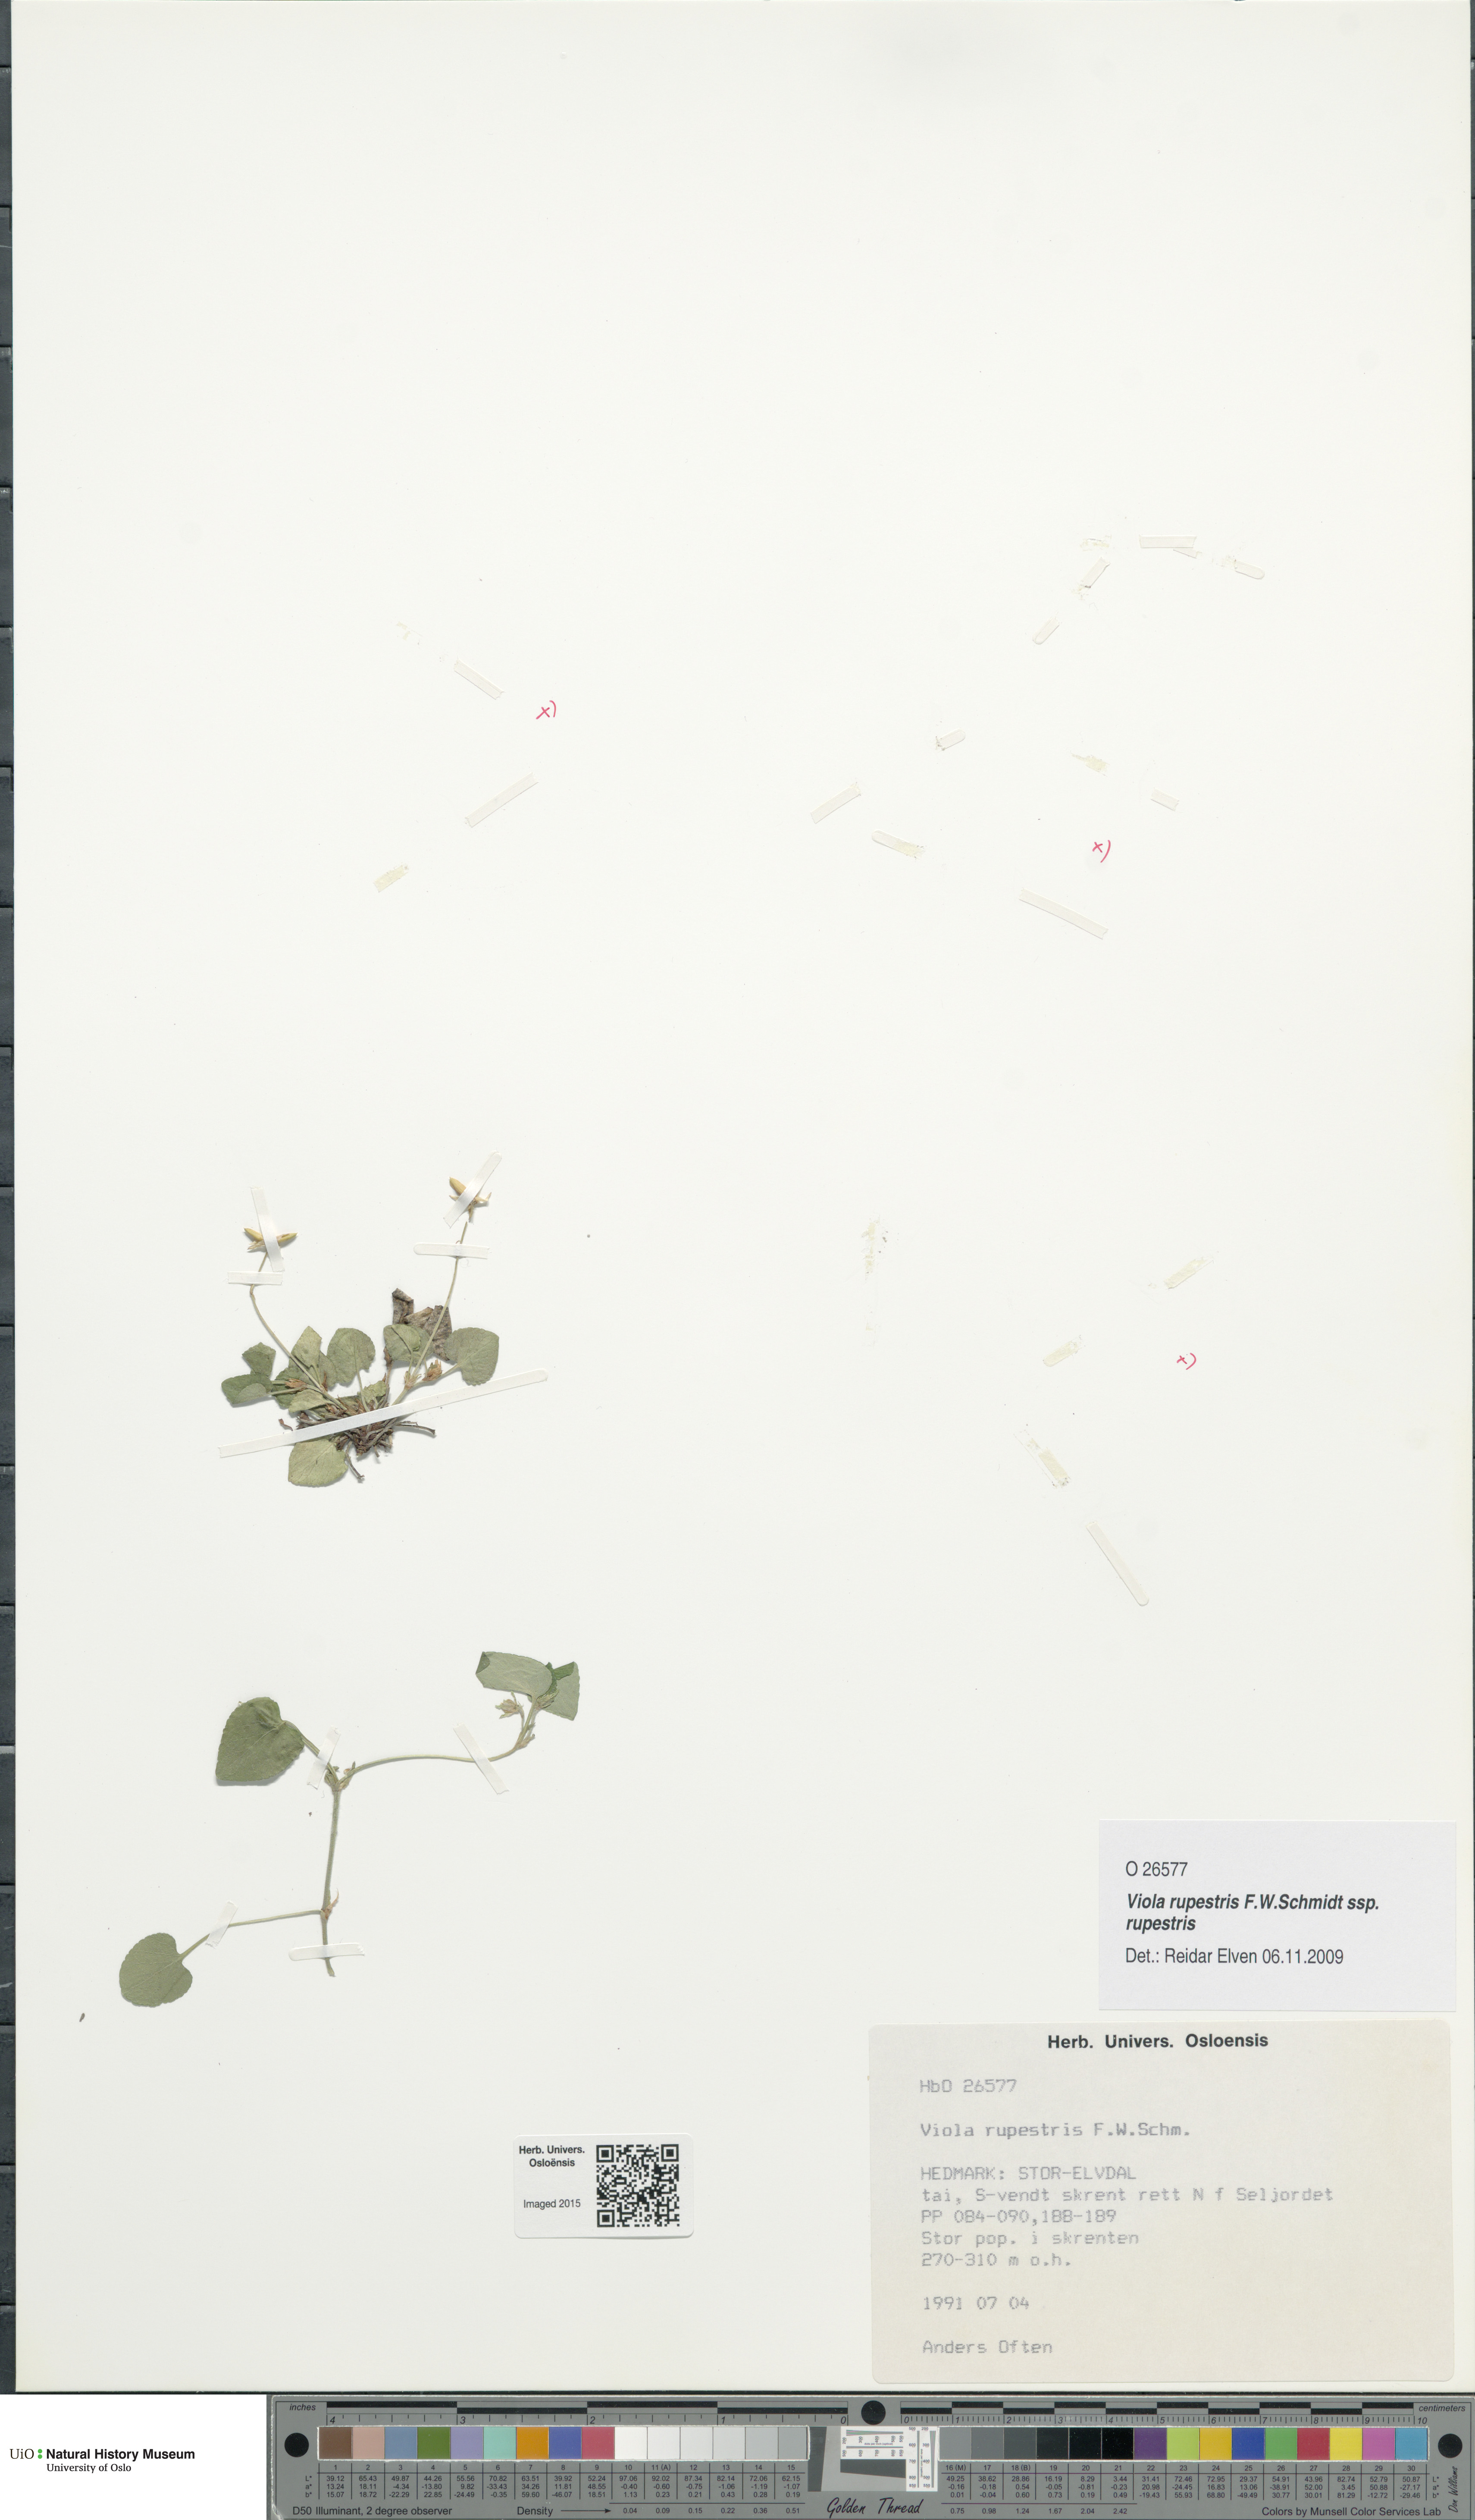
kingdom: Plantae
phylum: Tracheophyta
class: Magnoliopsida
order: Malpighiales
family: Violaceae
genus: Viola
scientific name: Viola rupestris
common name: Teesdale violet
